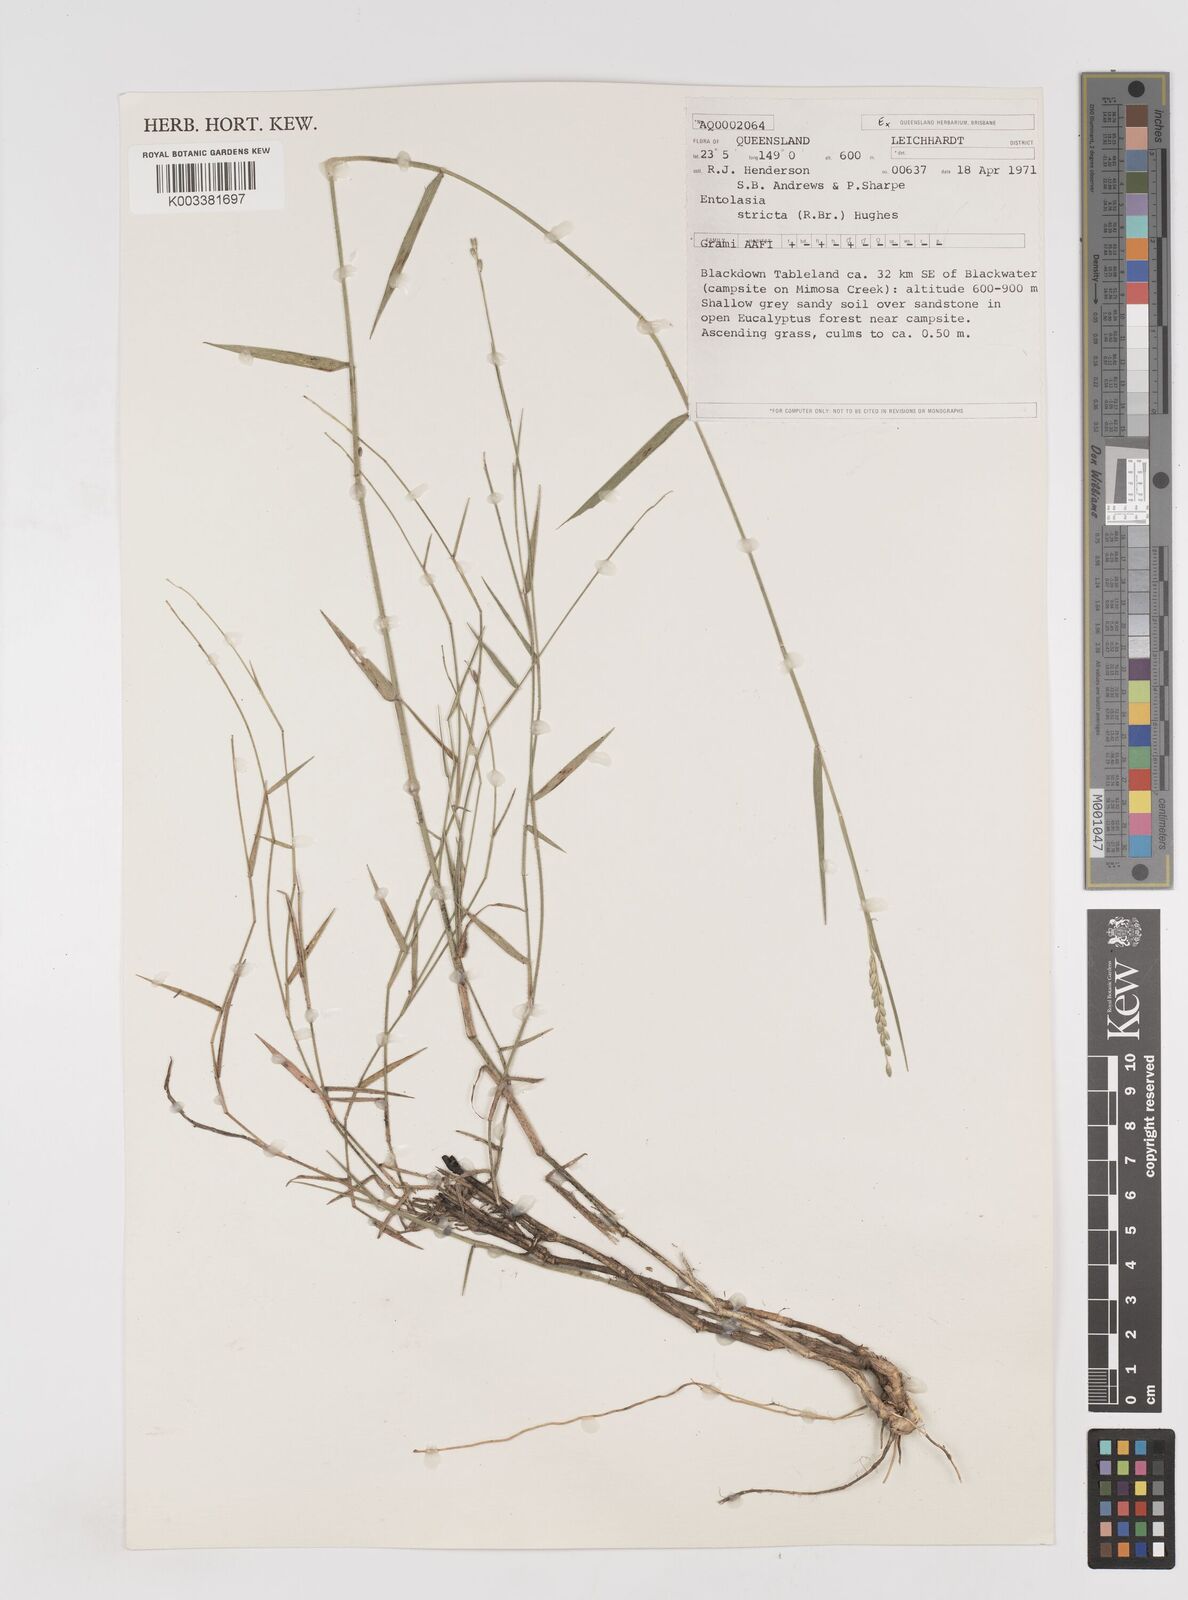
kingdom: Plantae
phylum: Tracheophyta
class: Liliopsida
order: Poales
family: Poaceae
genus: Entolasia
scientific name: Entolasia stricta
